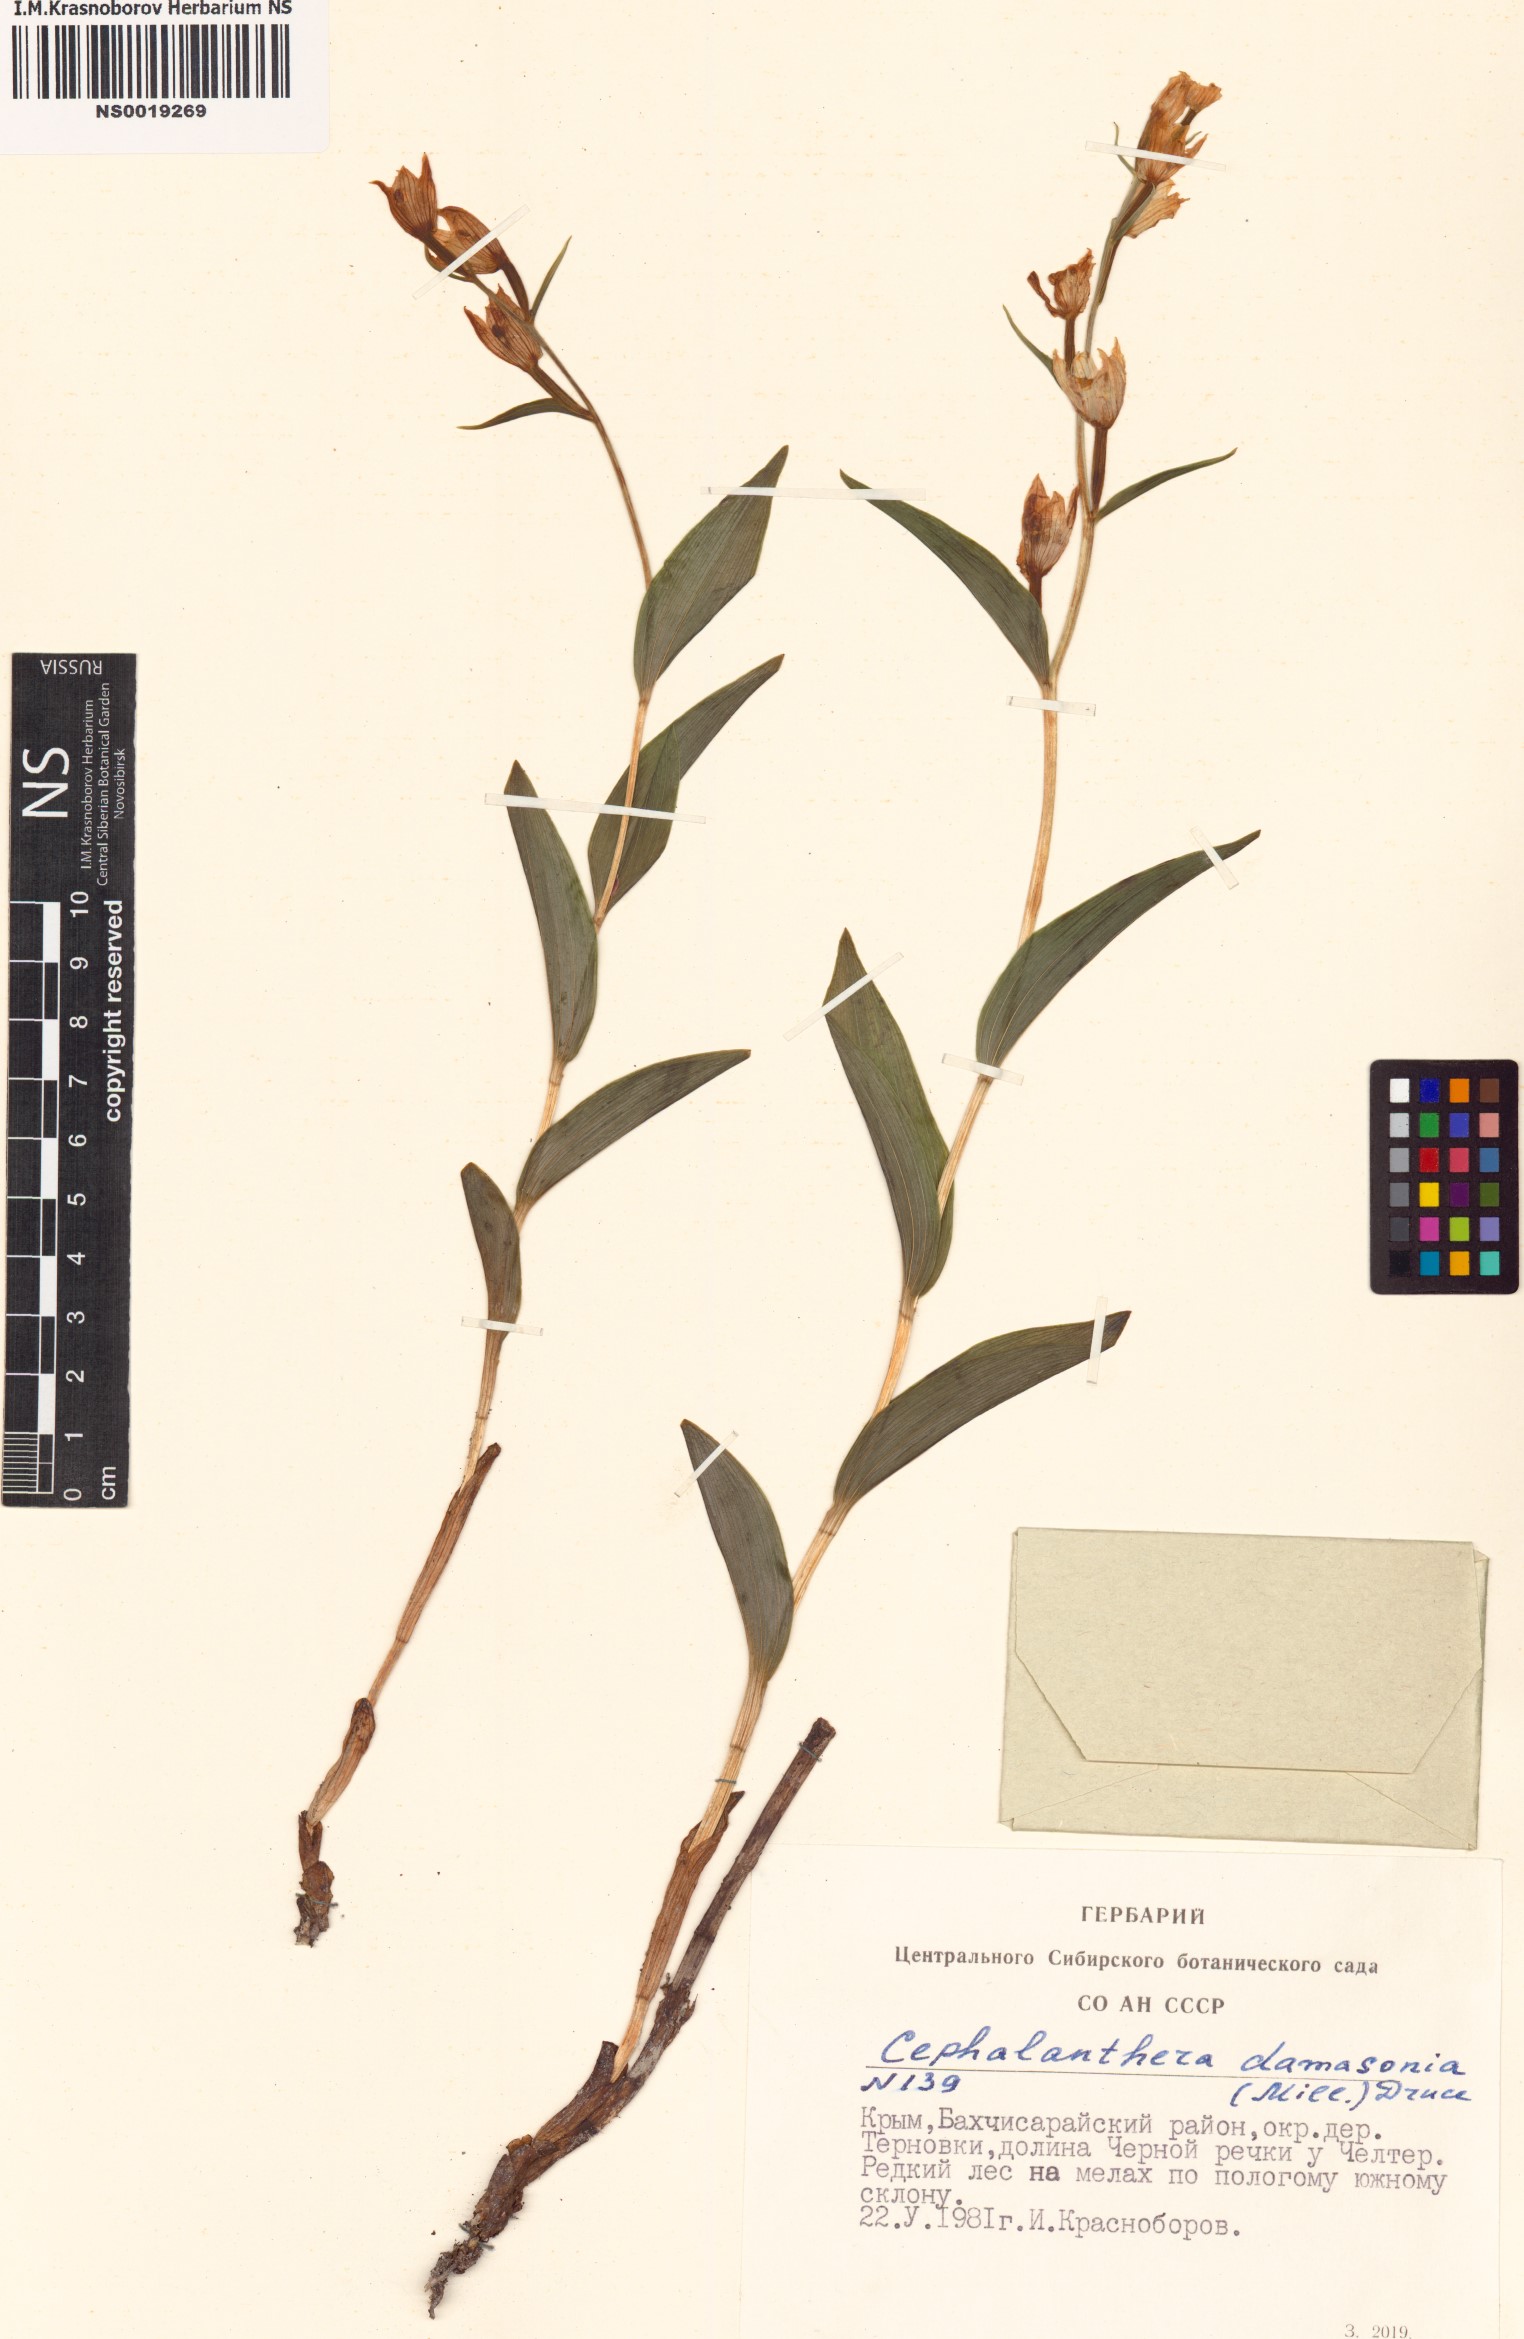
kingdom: Plantae
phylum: Tracheophyta
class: Liliopsida
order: Asparagales
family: Orchidaceae
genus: Cephalanthera
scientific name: Cephalanthera damasonium
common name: White helleborine
